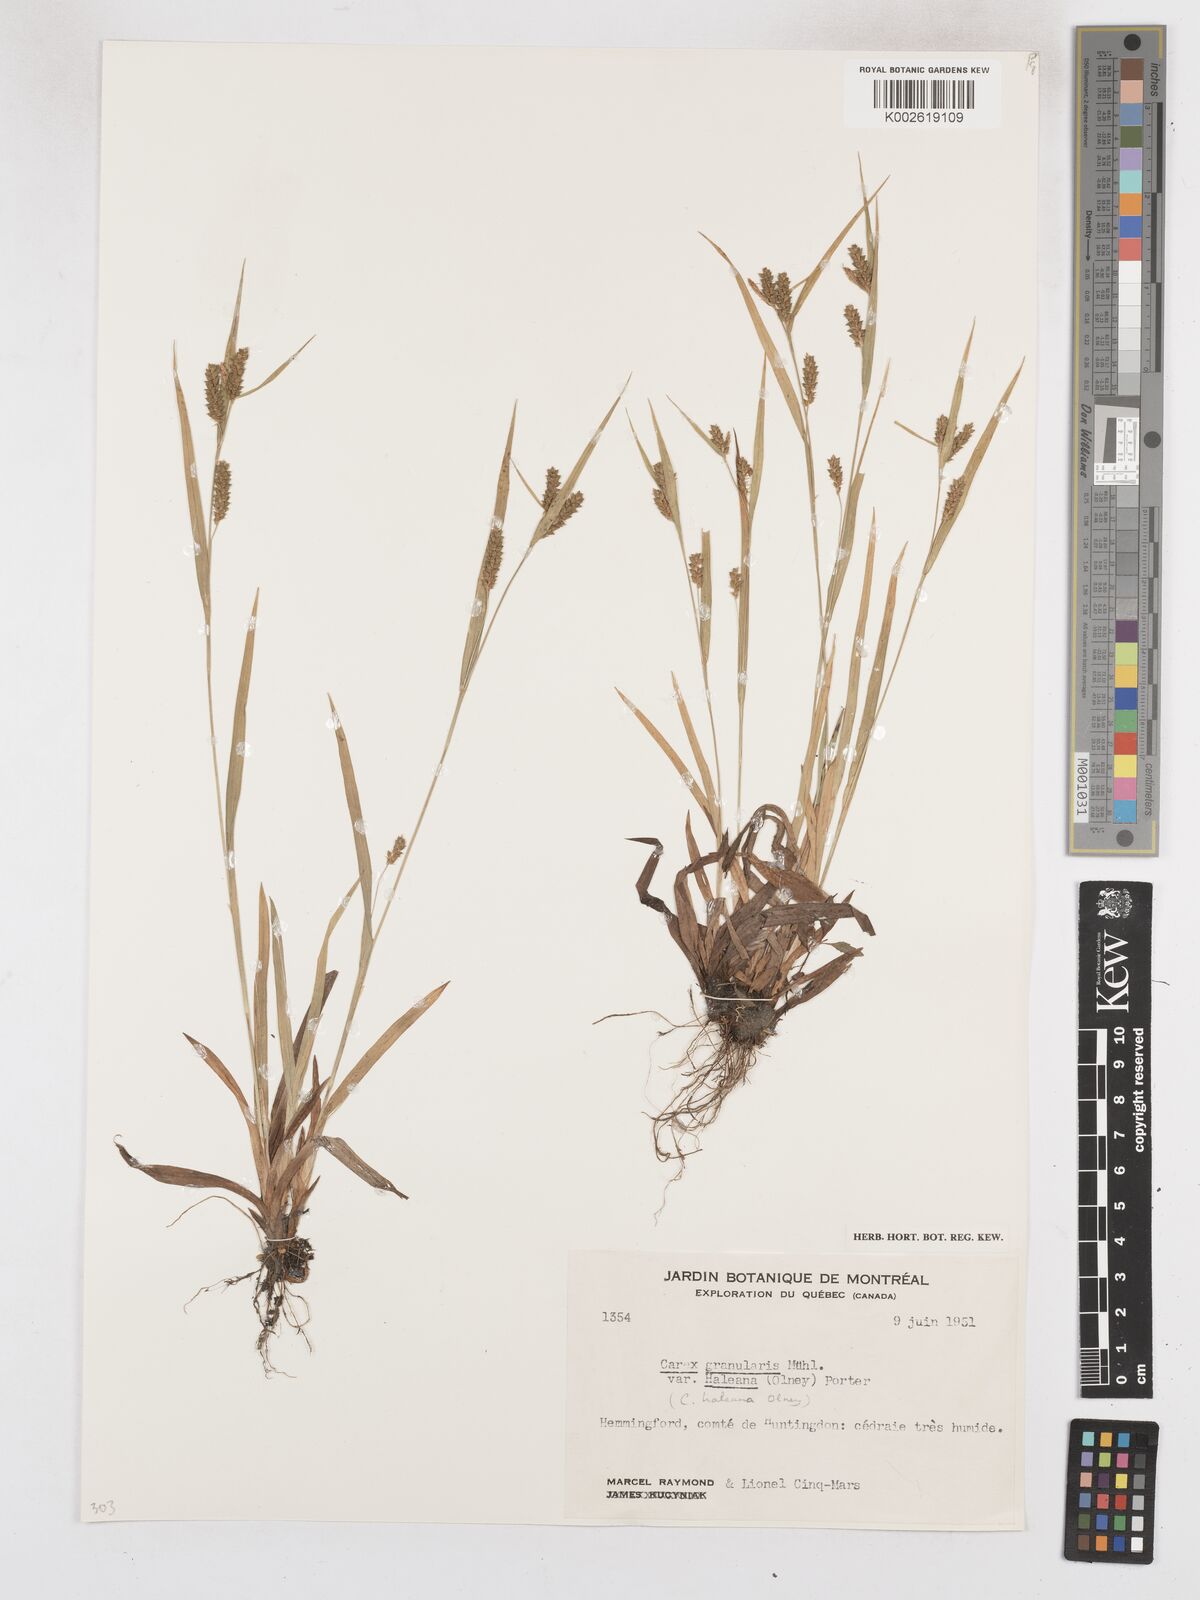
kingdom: Plantae
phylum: Tracheophyta
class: Liliopsida
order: Poales
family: Cyperaceae
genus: Carex
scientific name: Carex granularis
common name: Granular sedge
